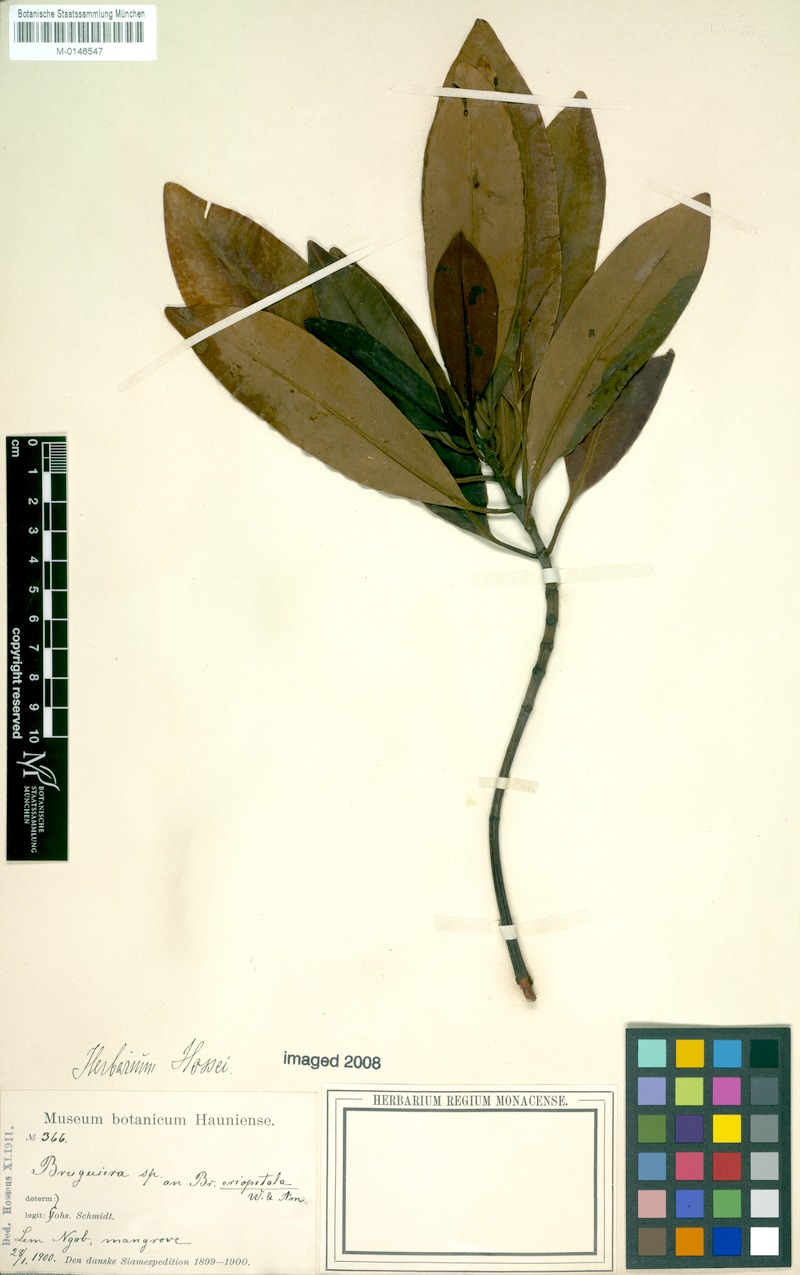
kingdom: Plantae
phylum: Tracheophyta
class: Magnoliopsida
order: Malpighiales
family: Rhizophoraceae
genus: Bruguiera
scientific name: Bruguiera sexangula
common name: Oriental mangrove
